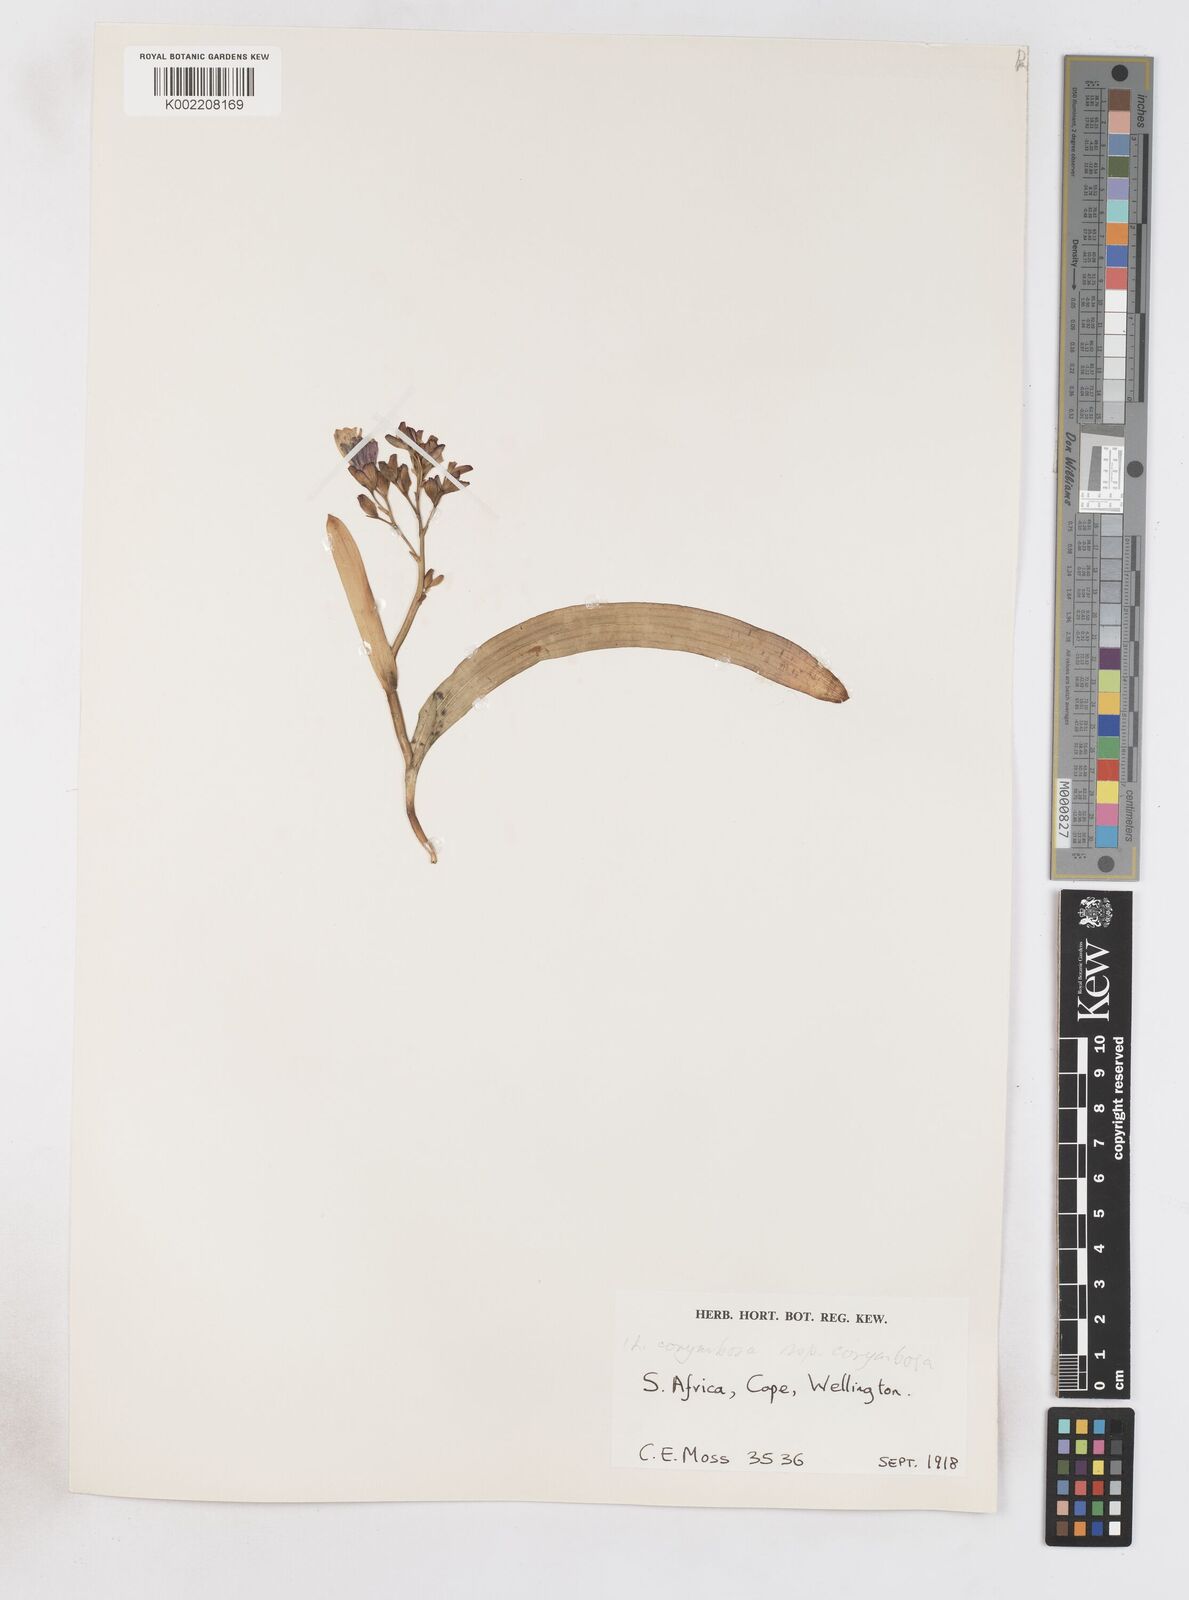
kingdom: Plantae
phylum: Tracheophyta
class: Liliopsida
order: Asparagales
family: Iridaceae
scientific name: Iridaceae
